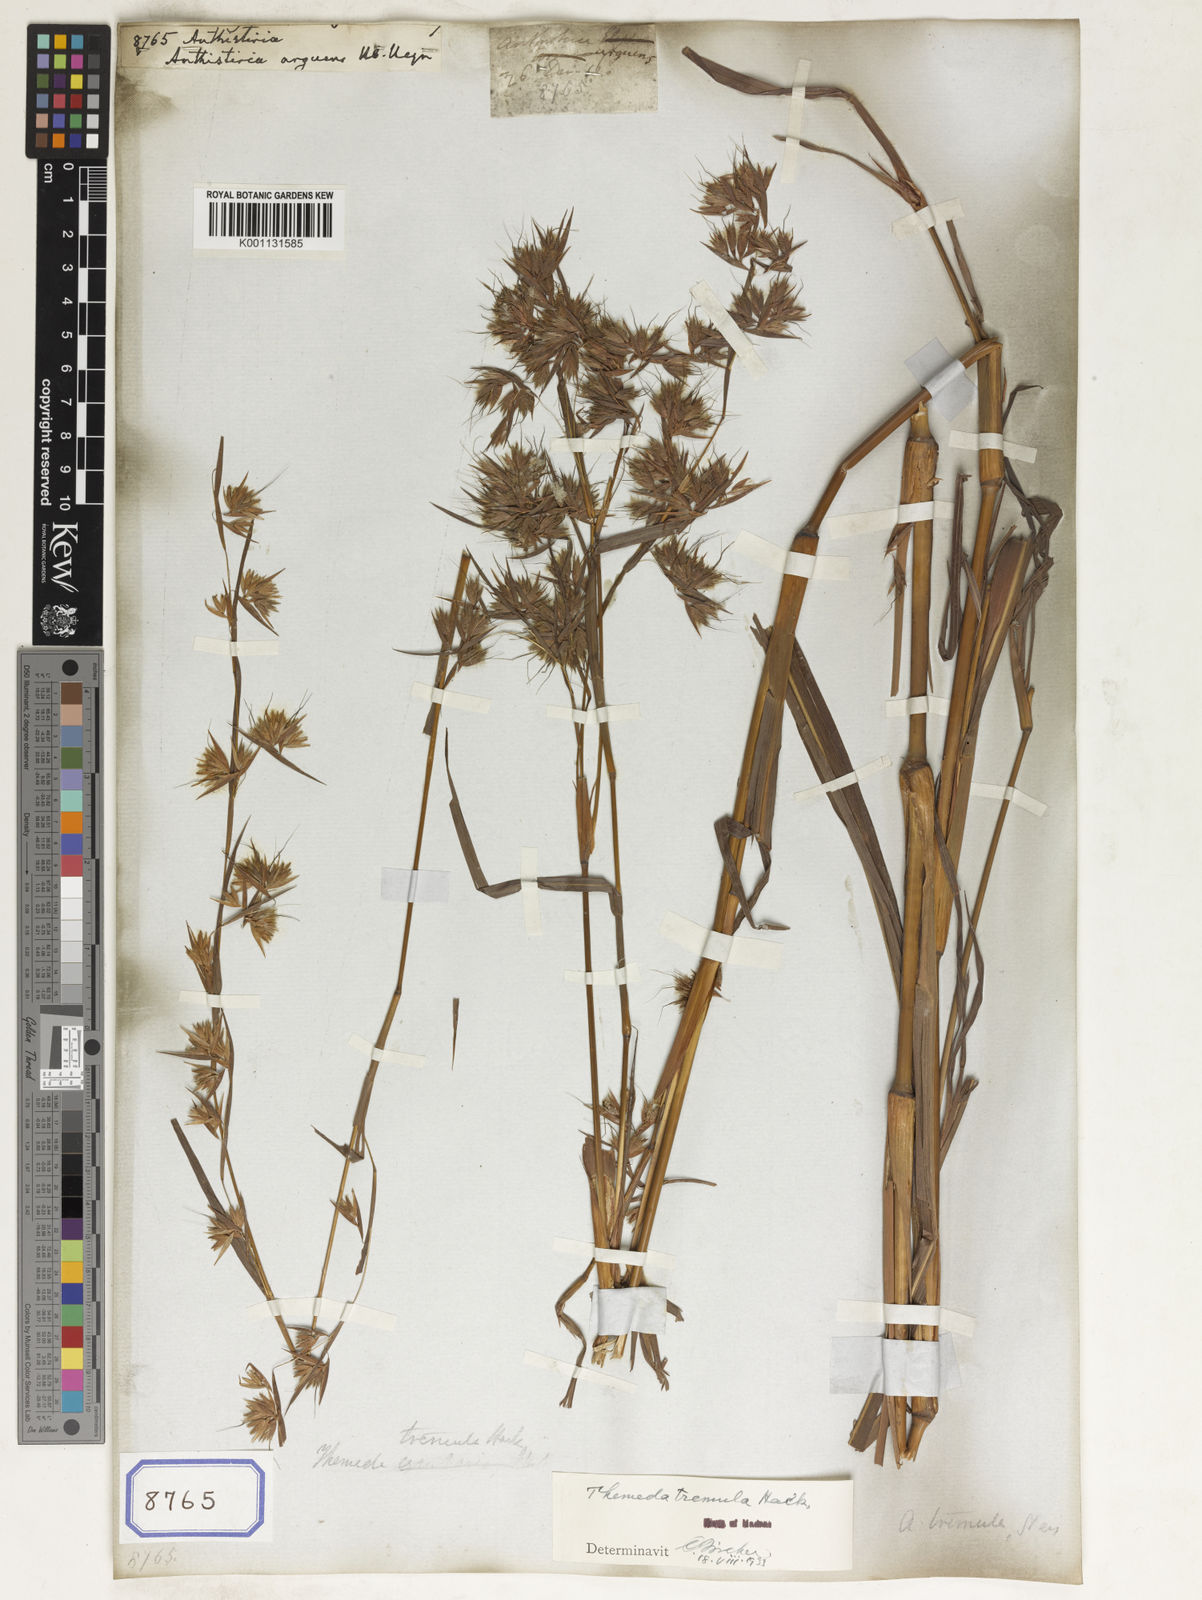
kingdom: Plantae
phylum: Tracheophyta
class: Liliopsida
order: Poales
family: Poaceae
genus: Themeda
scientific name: Themeda
